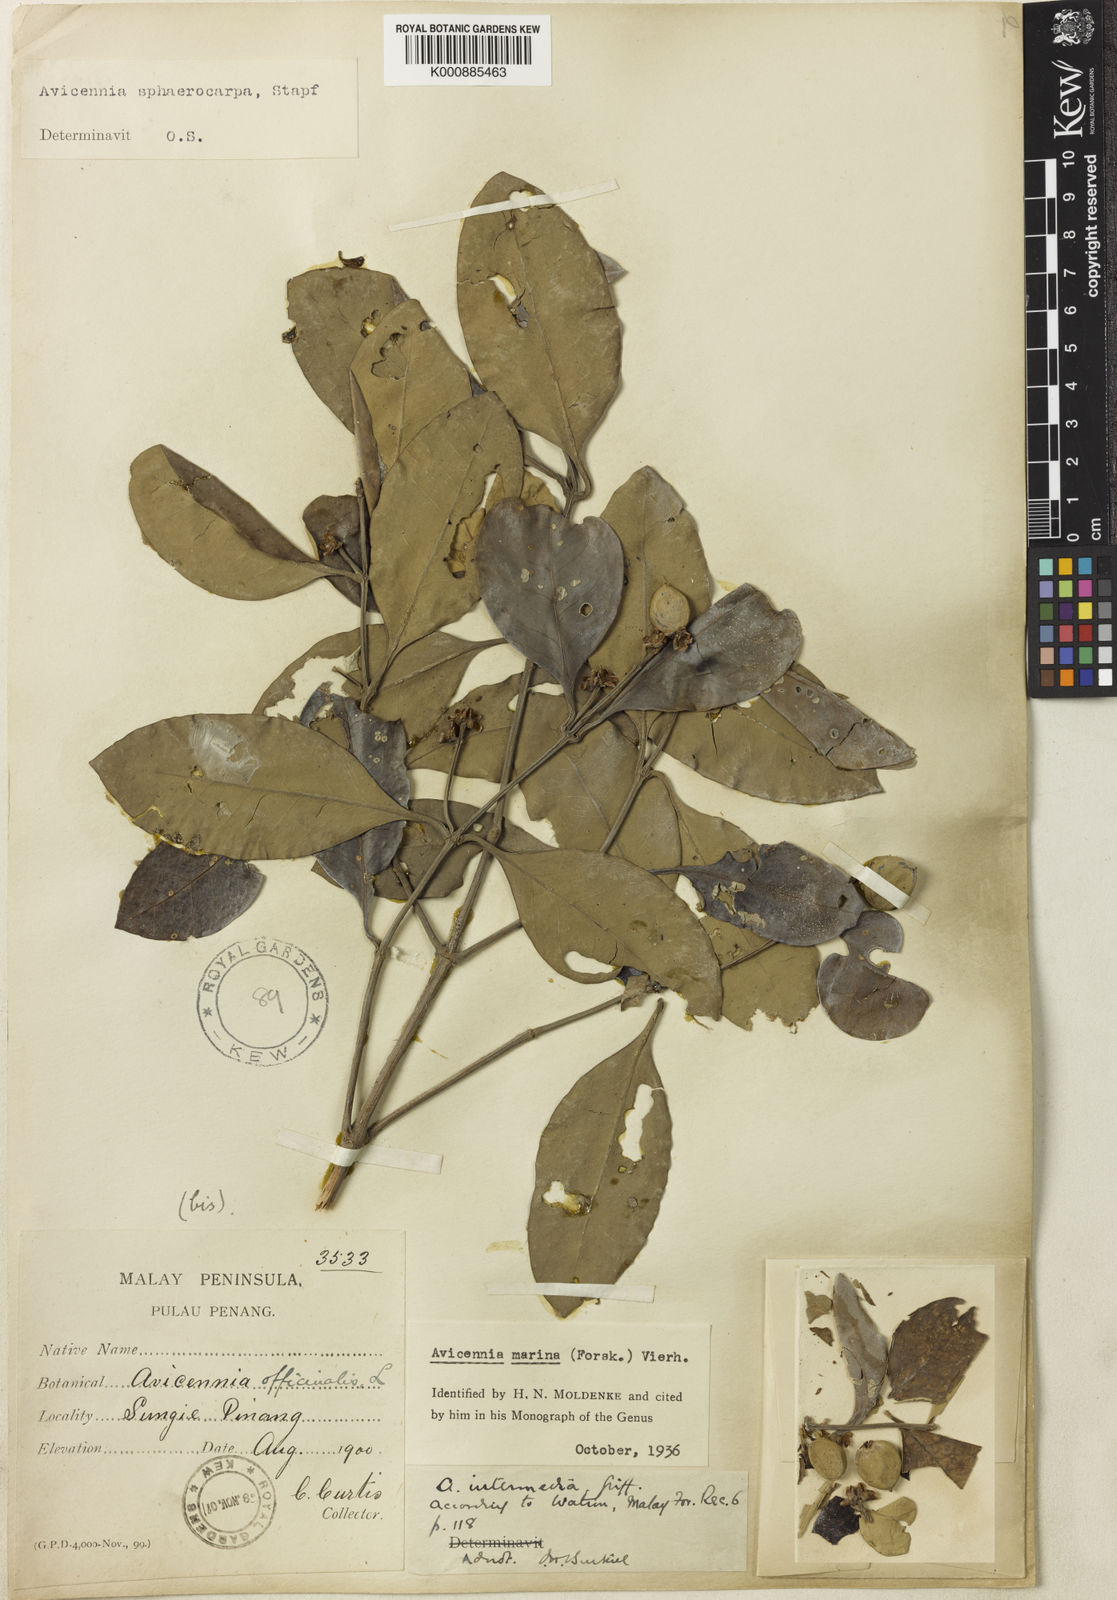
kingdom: Plantae
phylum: Tracheophyta
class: Magnoliopsida
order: Lamiales
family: Acanthaceae
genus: Avicennia
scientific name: Avicennia marina
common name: Gray mangrove
